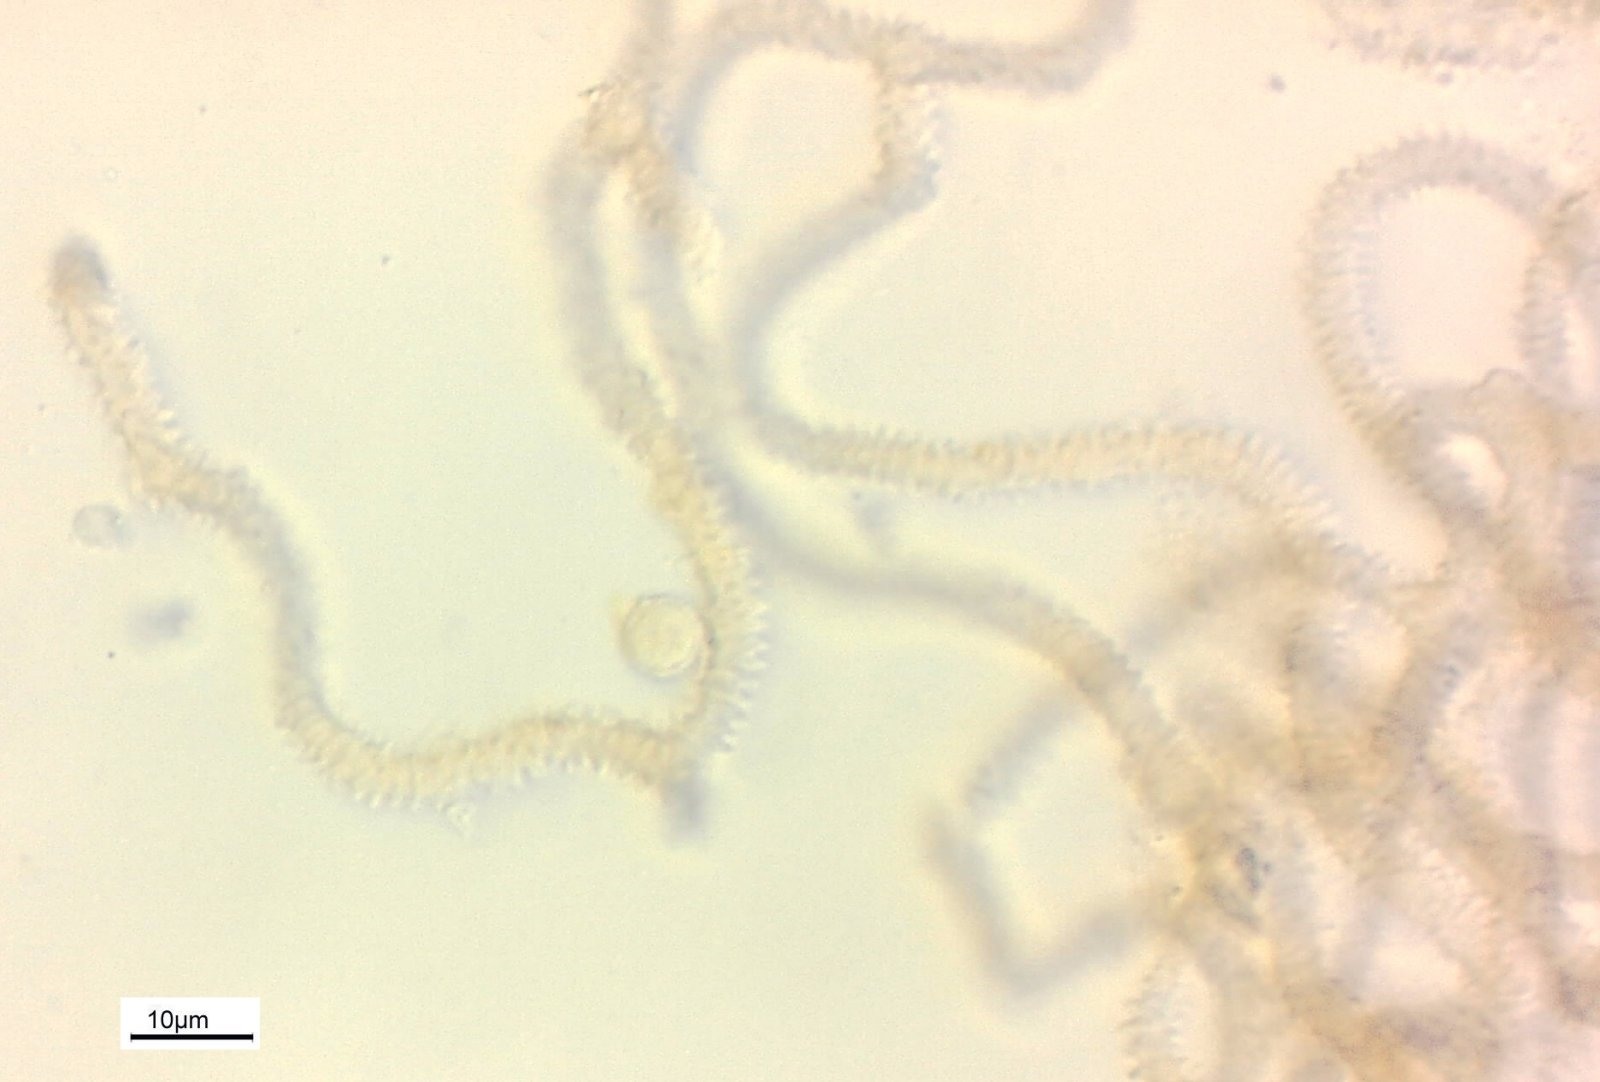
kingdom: Protozoa
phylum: Mycetozoa
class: Myxomycetes
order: Trichiales
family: Arcyriaceae
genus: Arcyria
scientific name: Arcyria minuta
